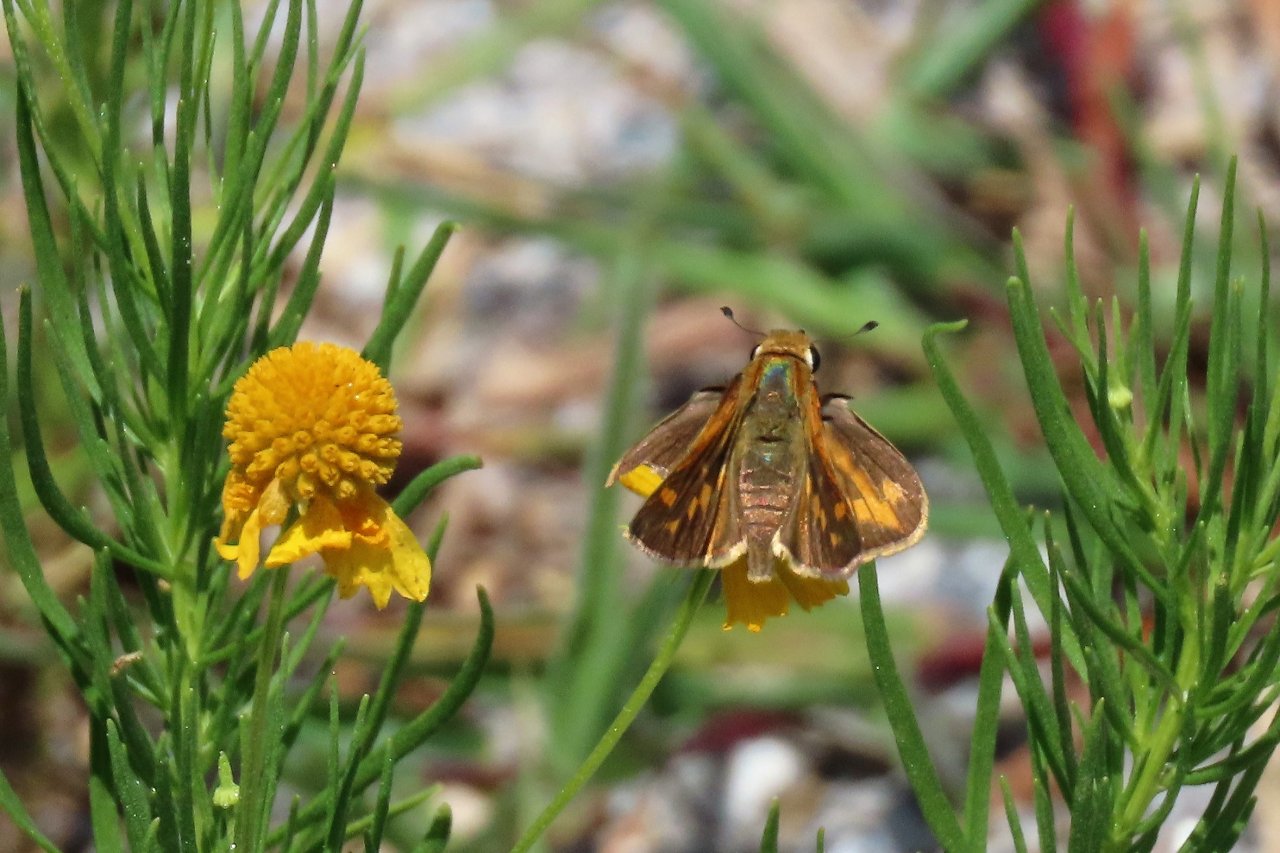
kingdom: Animalia
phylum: Arthropoda
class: Insecta
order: Lepidoptera
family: Hesperiidae
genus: Hylephila
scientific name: Hylephila phyleus
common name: Fiery Skipper
